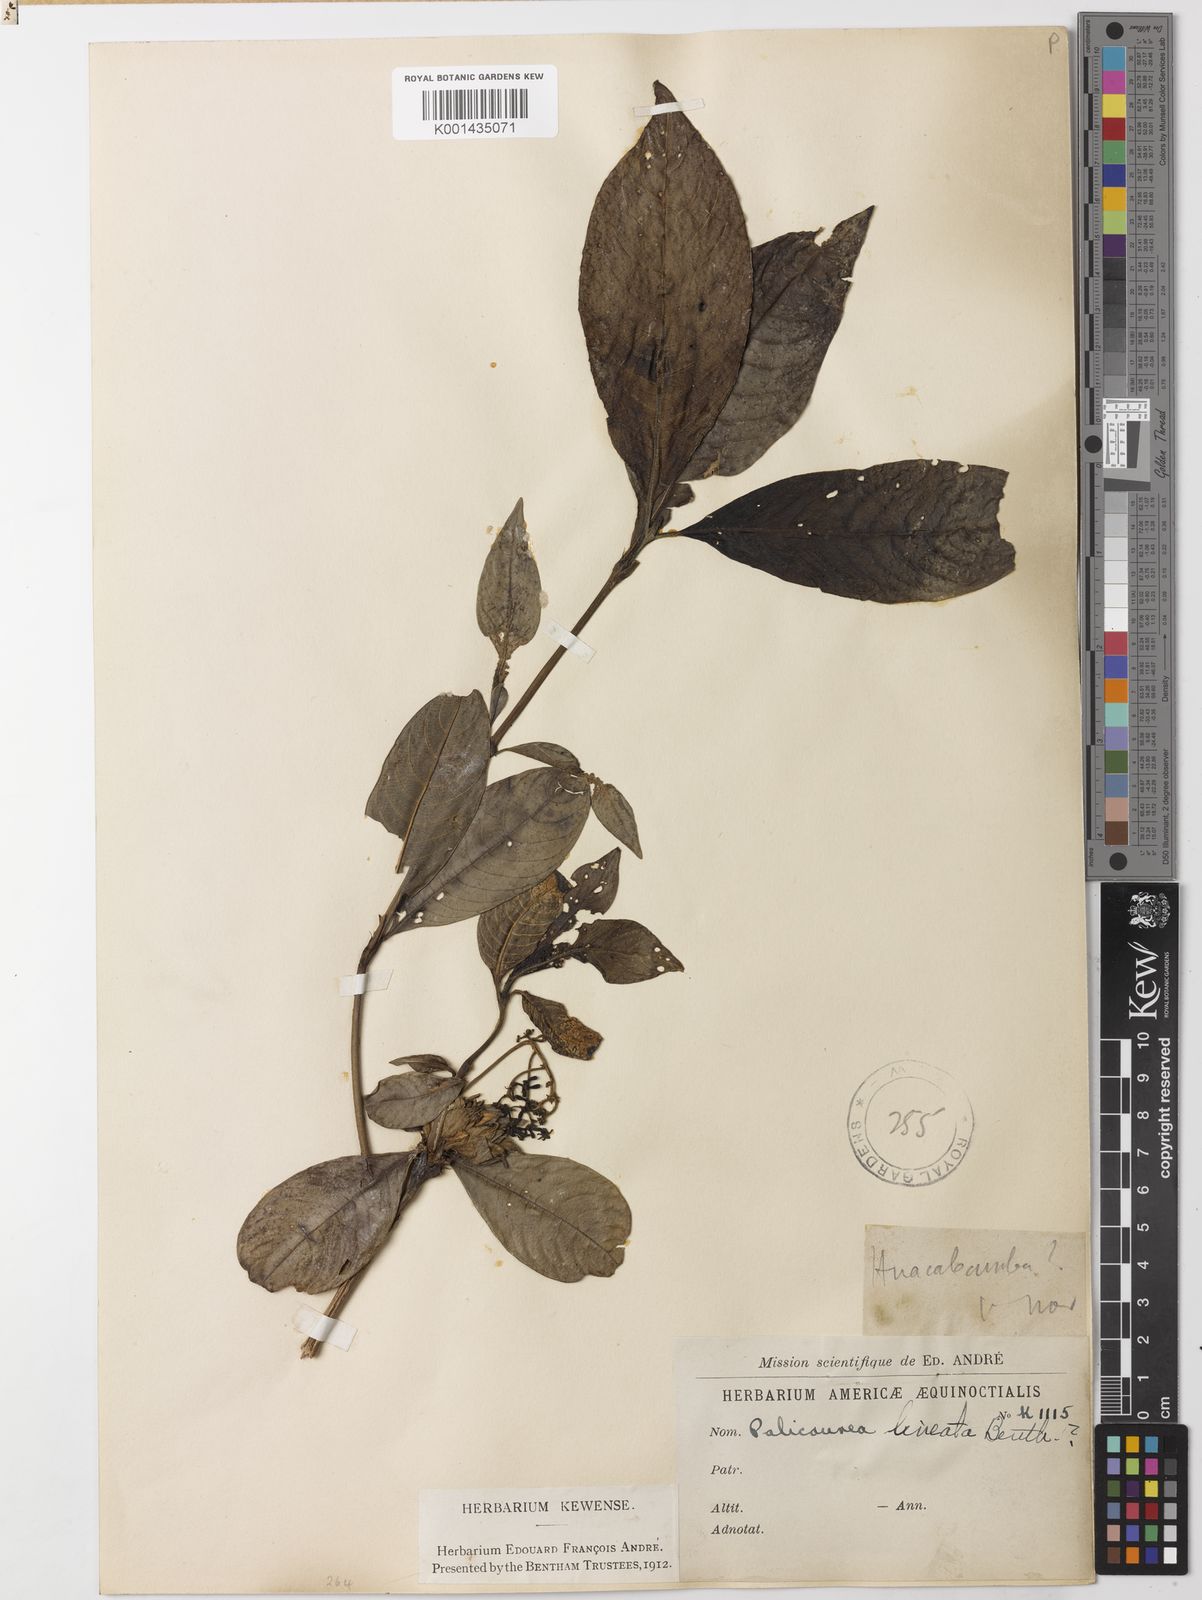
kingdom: Plantae
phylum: Tracheophyta
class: Magnoliopsida
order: Gentianales
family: Rubiaceae
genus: Palicourea
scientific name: Palicourea lineata
